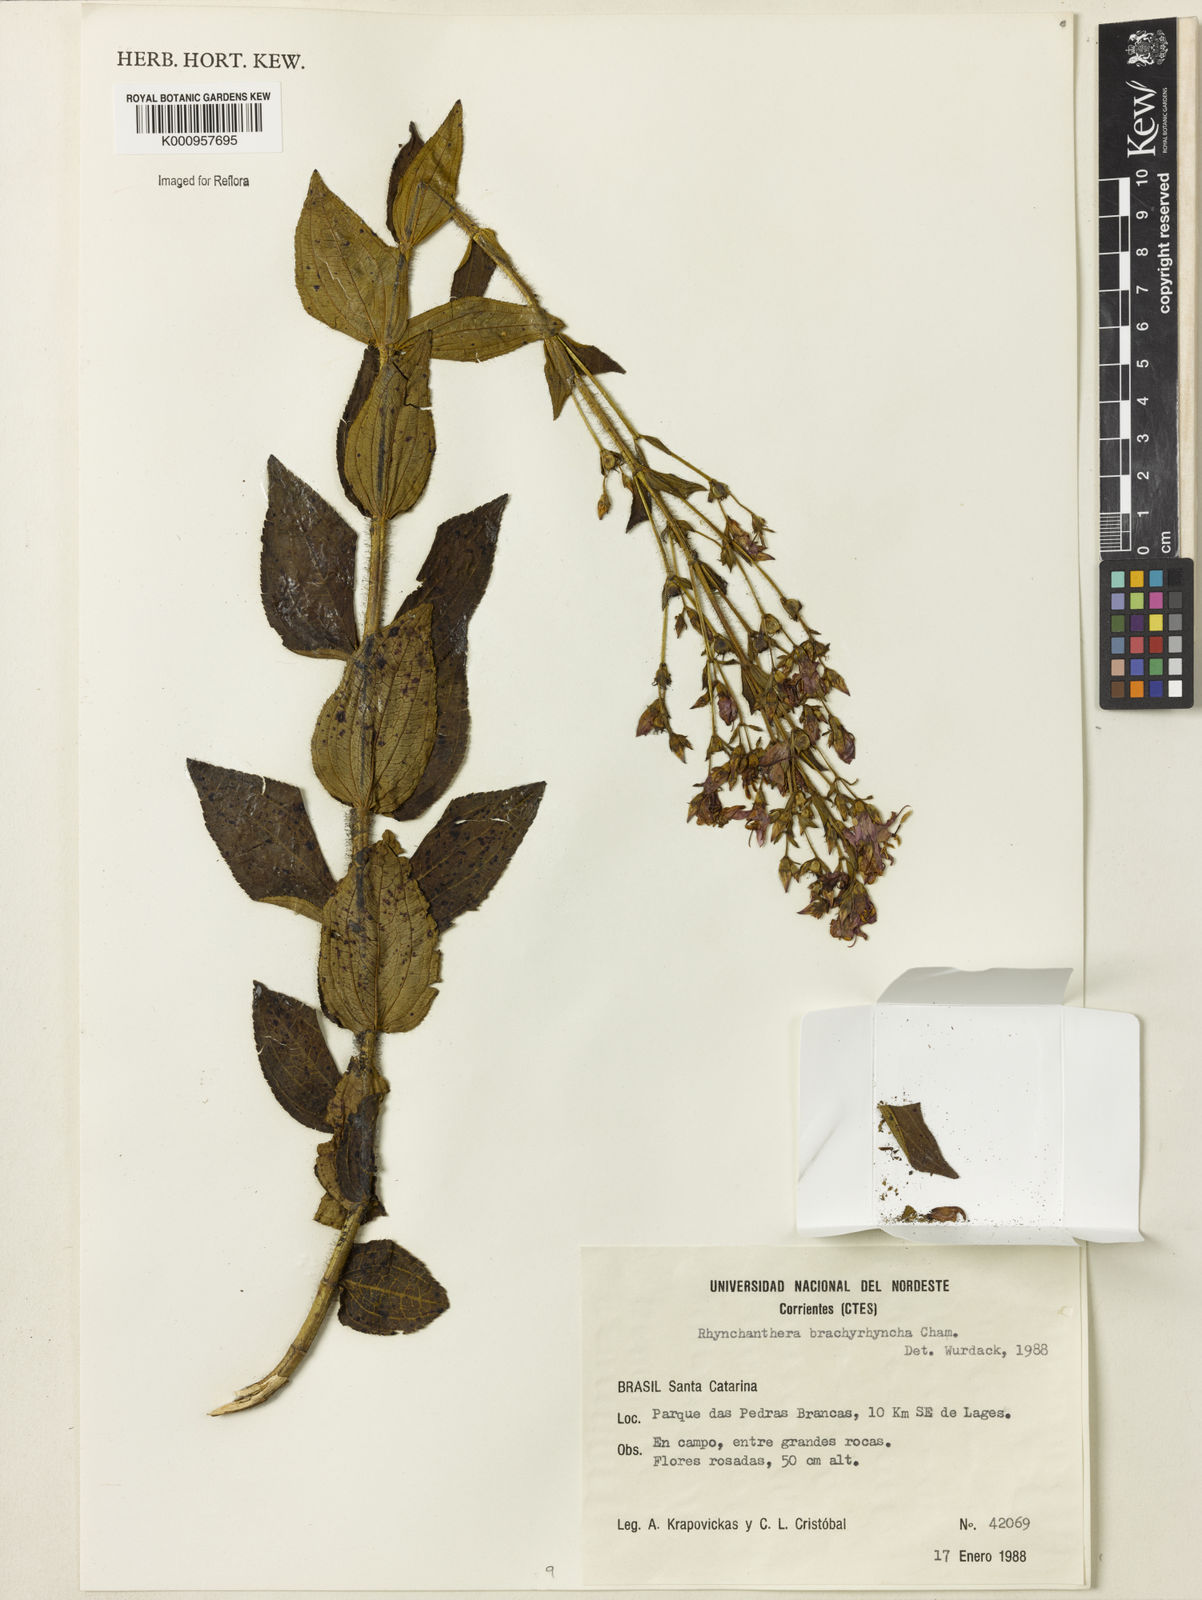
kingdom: Plantae
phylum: Tracheophyta
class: Magnoliopsida
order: Myrtales
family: Melastomataceae
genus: Rhynchanthera
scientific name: Rhynchanthera brachyrhyncha
